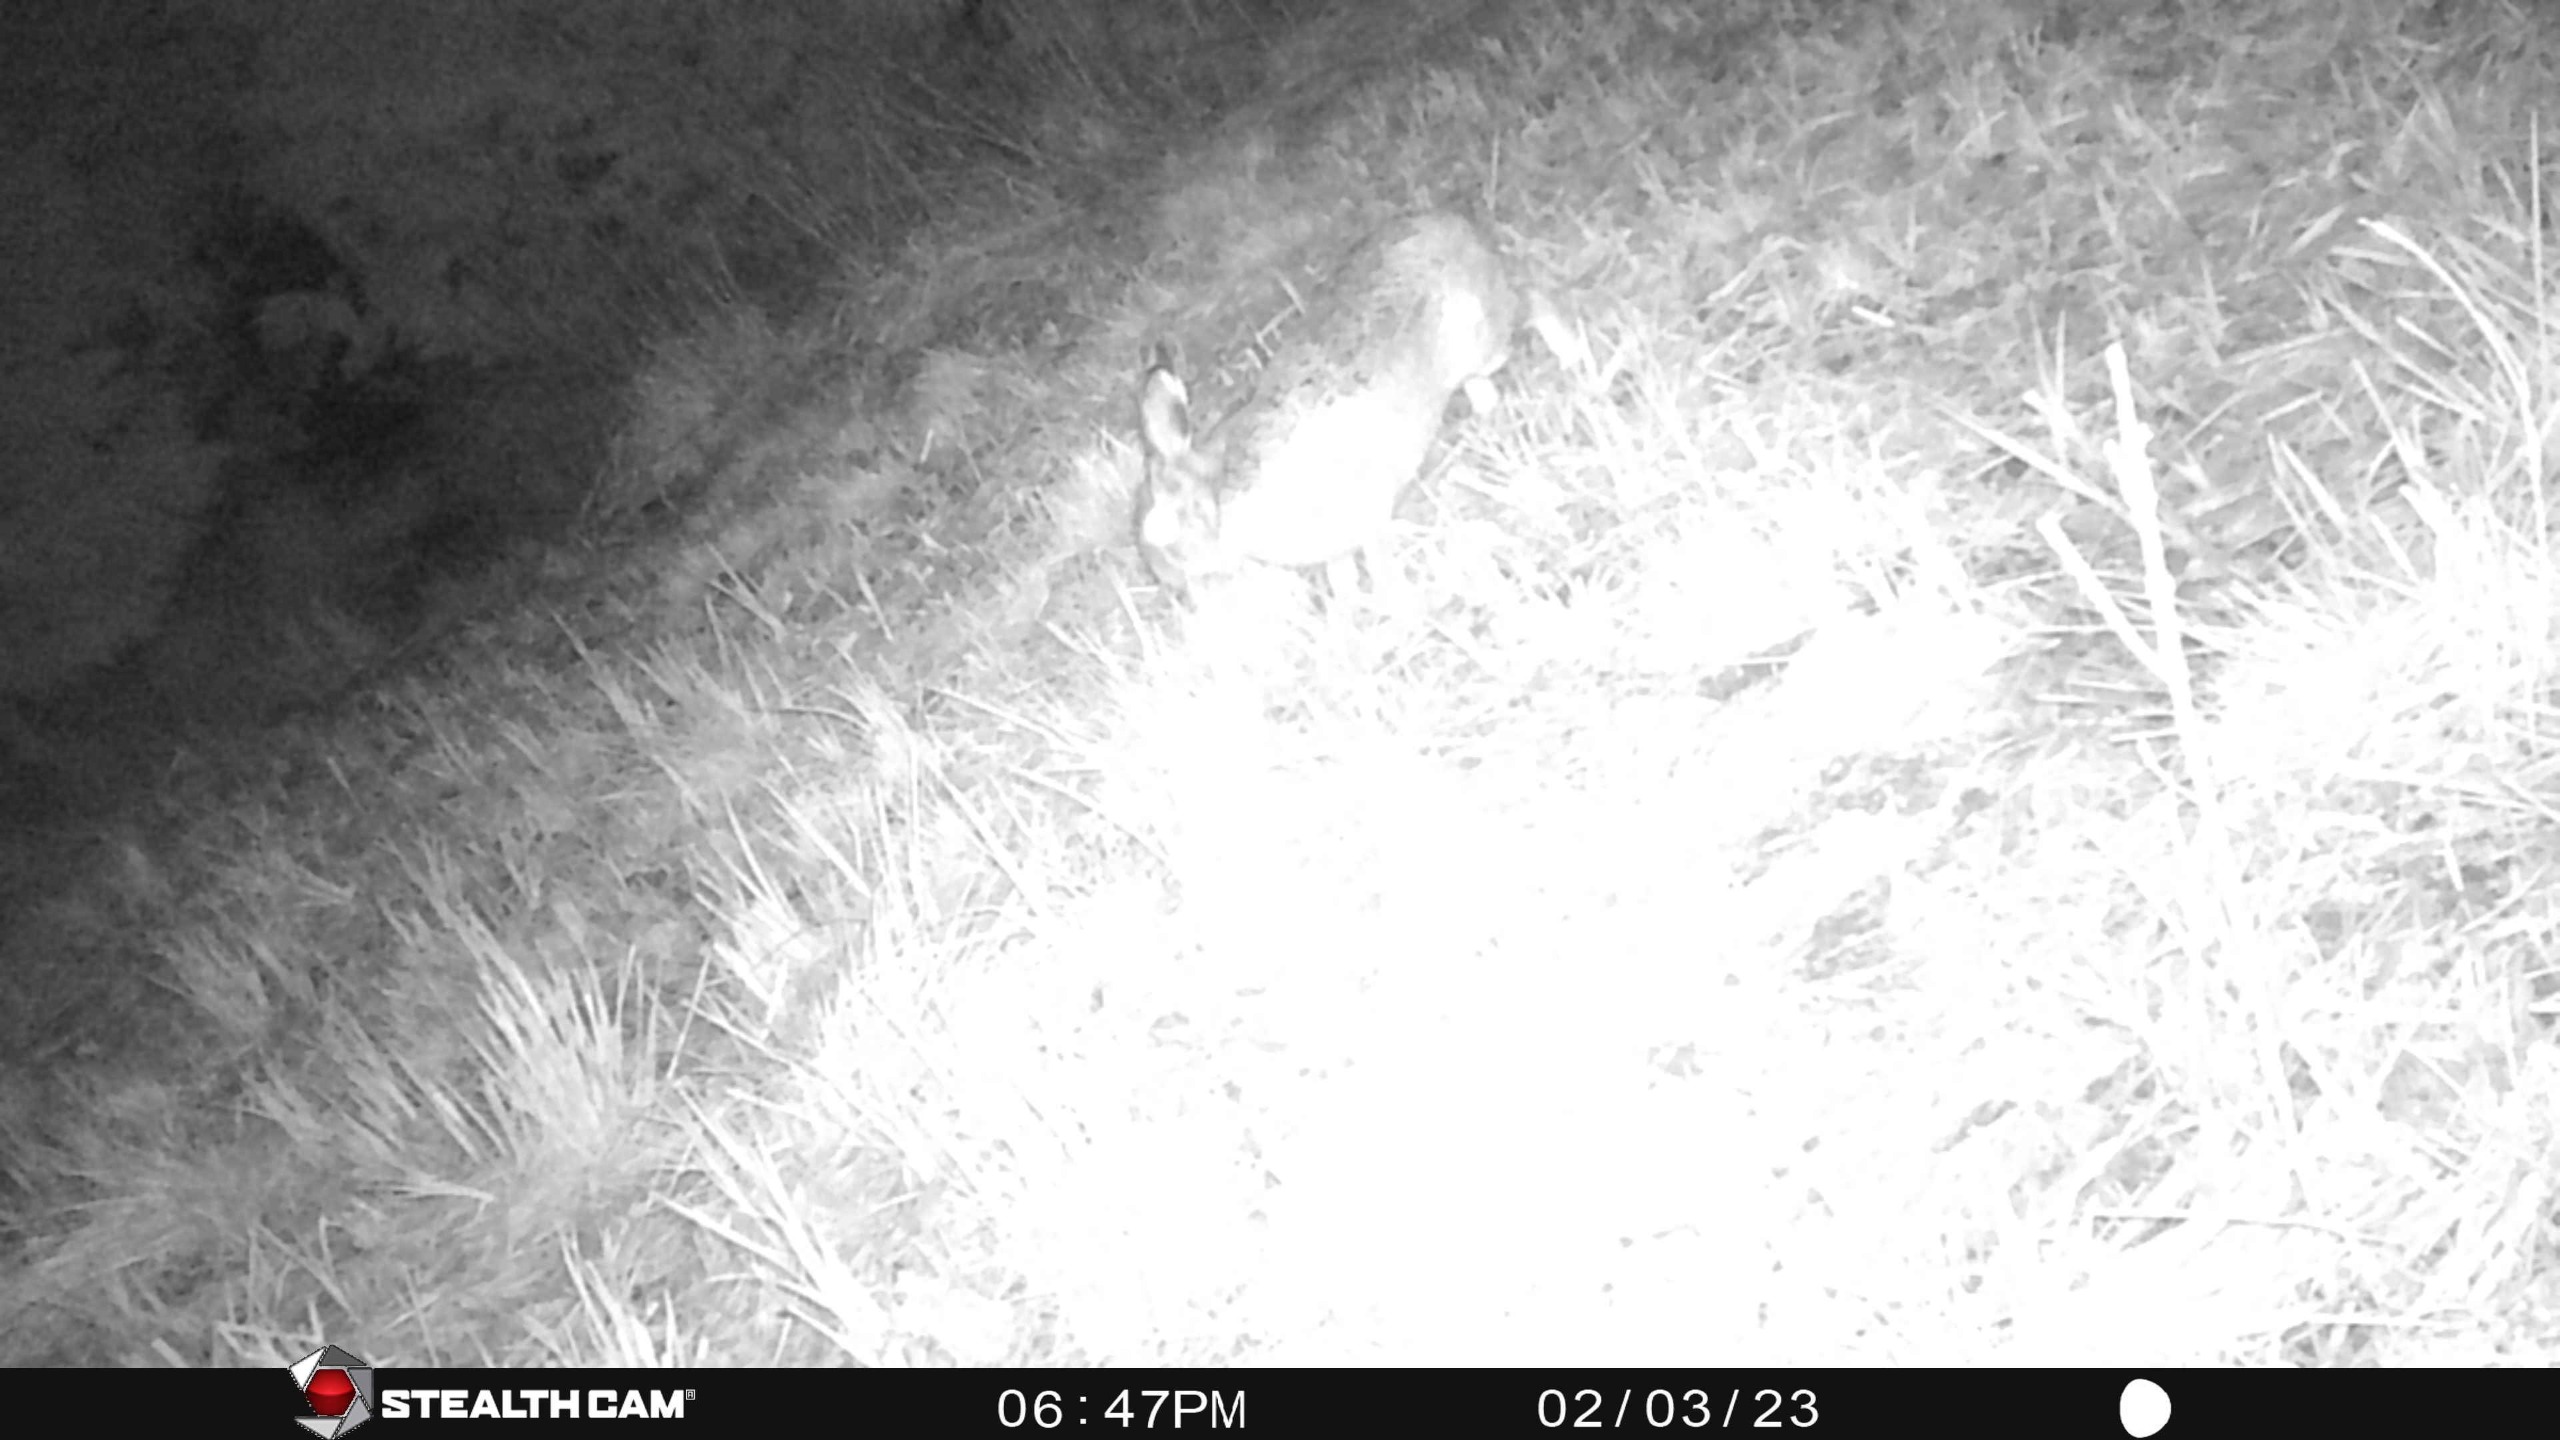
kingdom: Animalia
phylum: Chordata
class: Mammalia
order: Lagomorpha
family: Leporidae
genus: Lepus
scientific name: Lepus europaeus
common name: Hare
